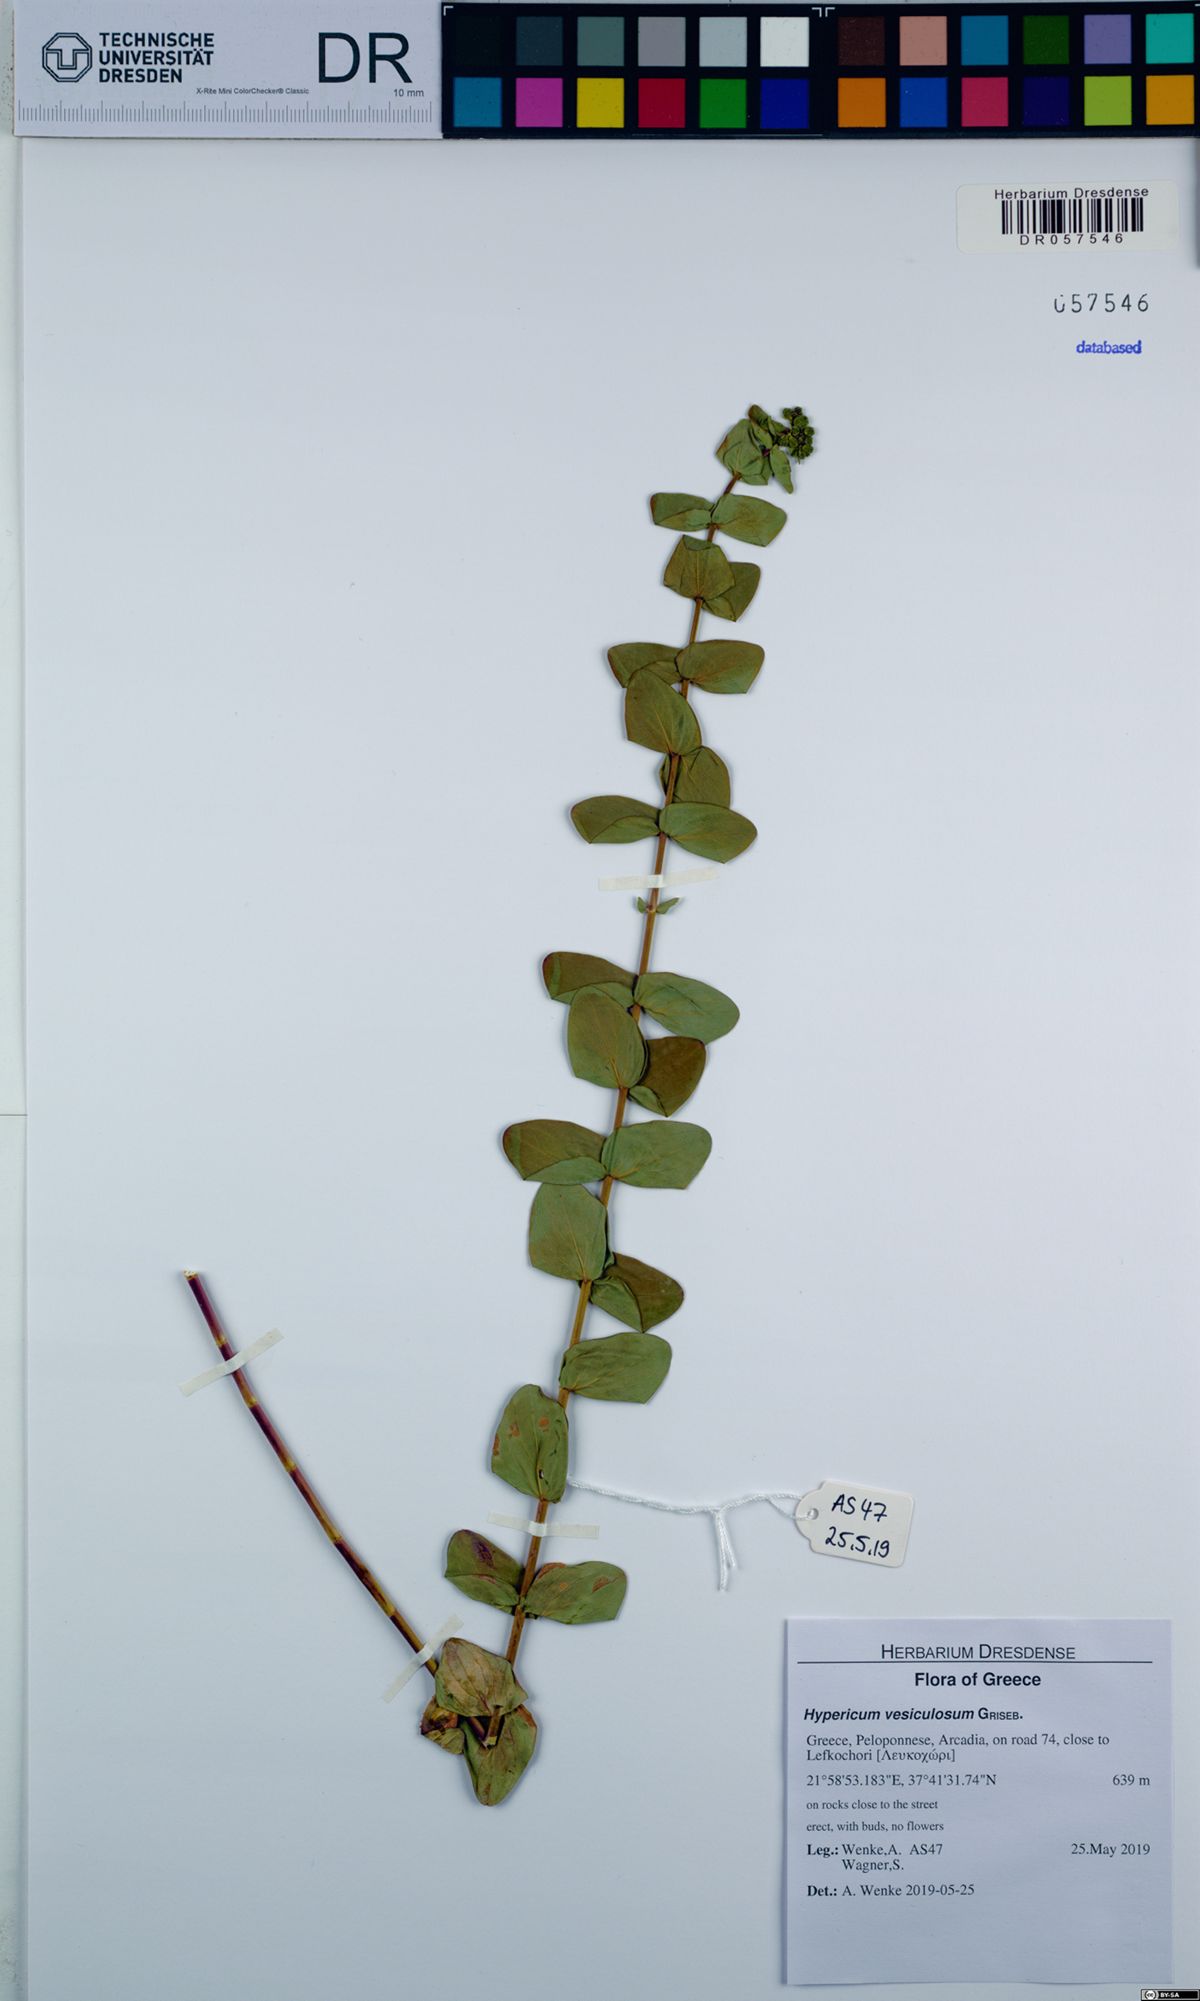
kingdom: Plantae
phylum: Tracheophyta
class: Magnoliopsida
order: Malpighiales
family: Hypericaceae
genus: Hypericum
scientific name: Hypericum vesiculosum
